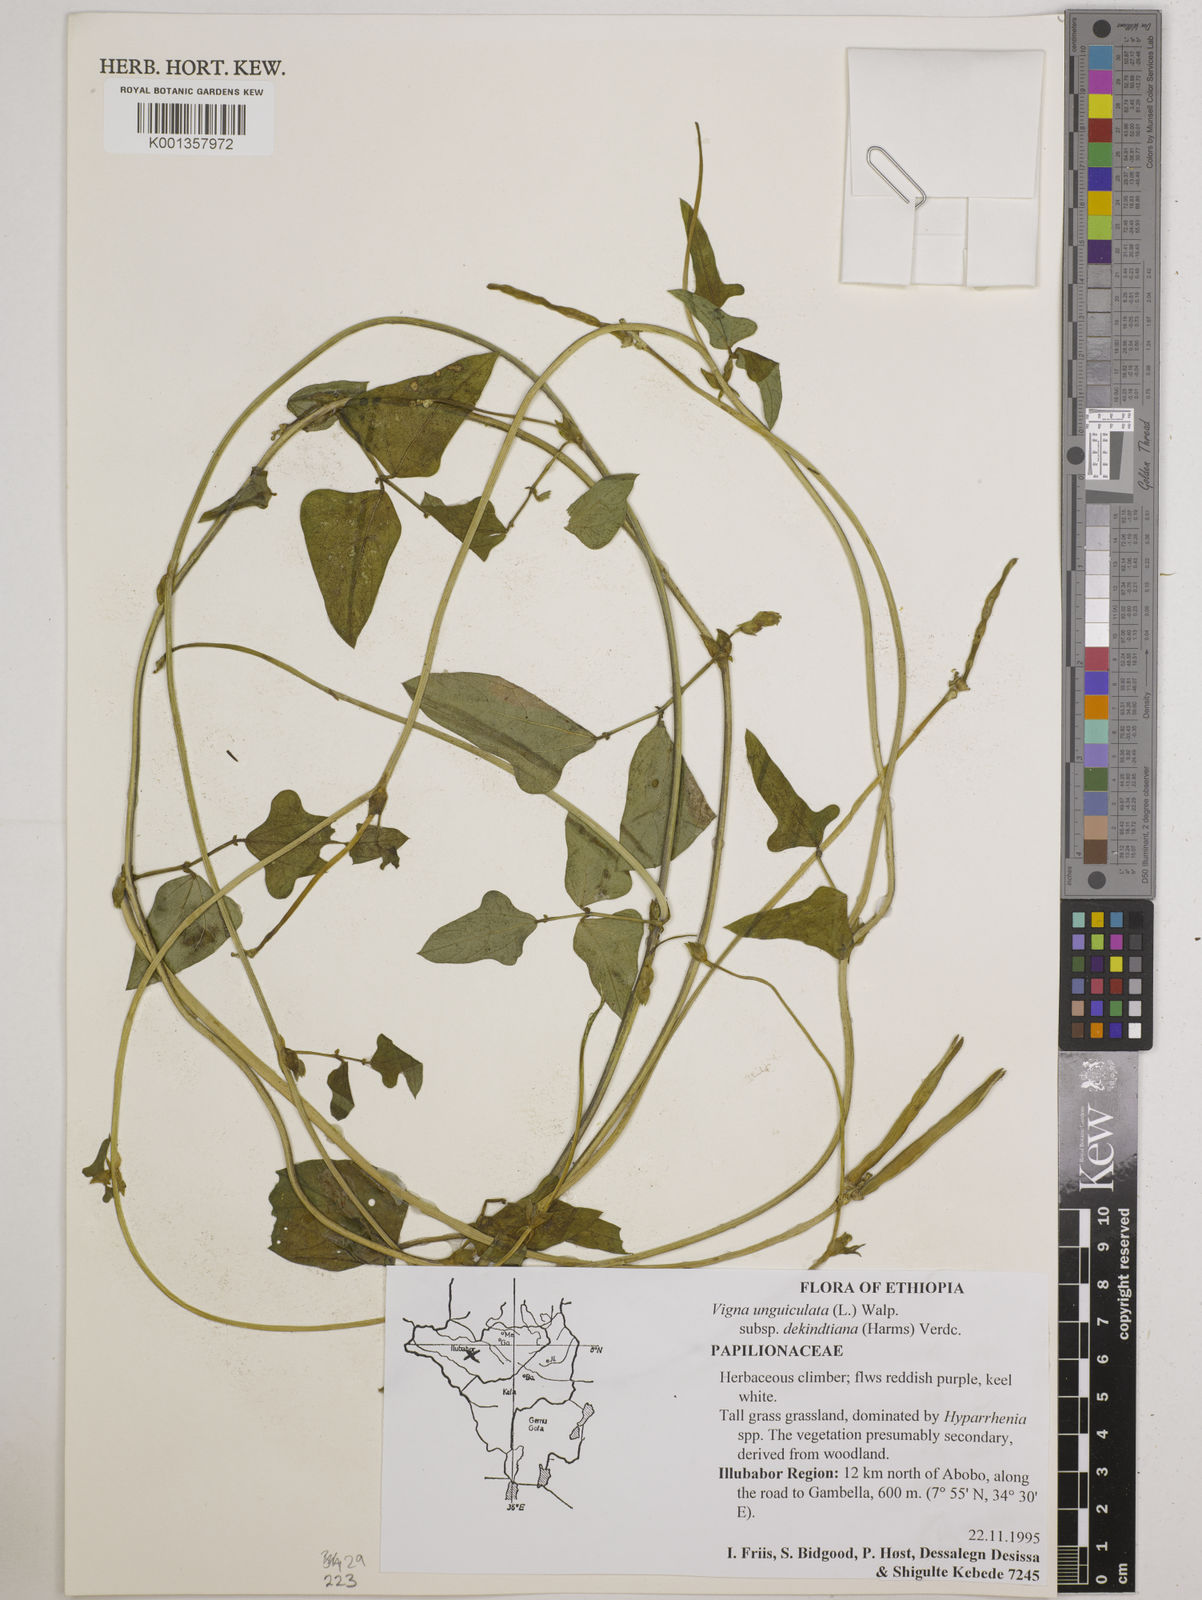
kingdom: Plantae
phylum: Tracheophyta
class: Magnoliopsida
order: Fabales
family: Fabaceae
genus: Vigna
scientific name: Vigna
